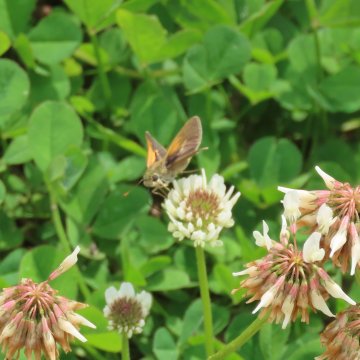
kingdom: Animalia
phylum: Arthropoda
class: Insecta
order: Lepidoptera
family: Hesperiidae
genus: Polites
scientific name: Polites themistocles
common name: Tawny-edged Skipper
